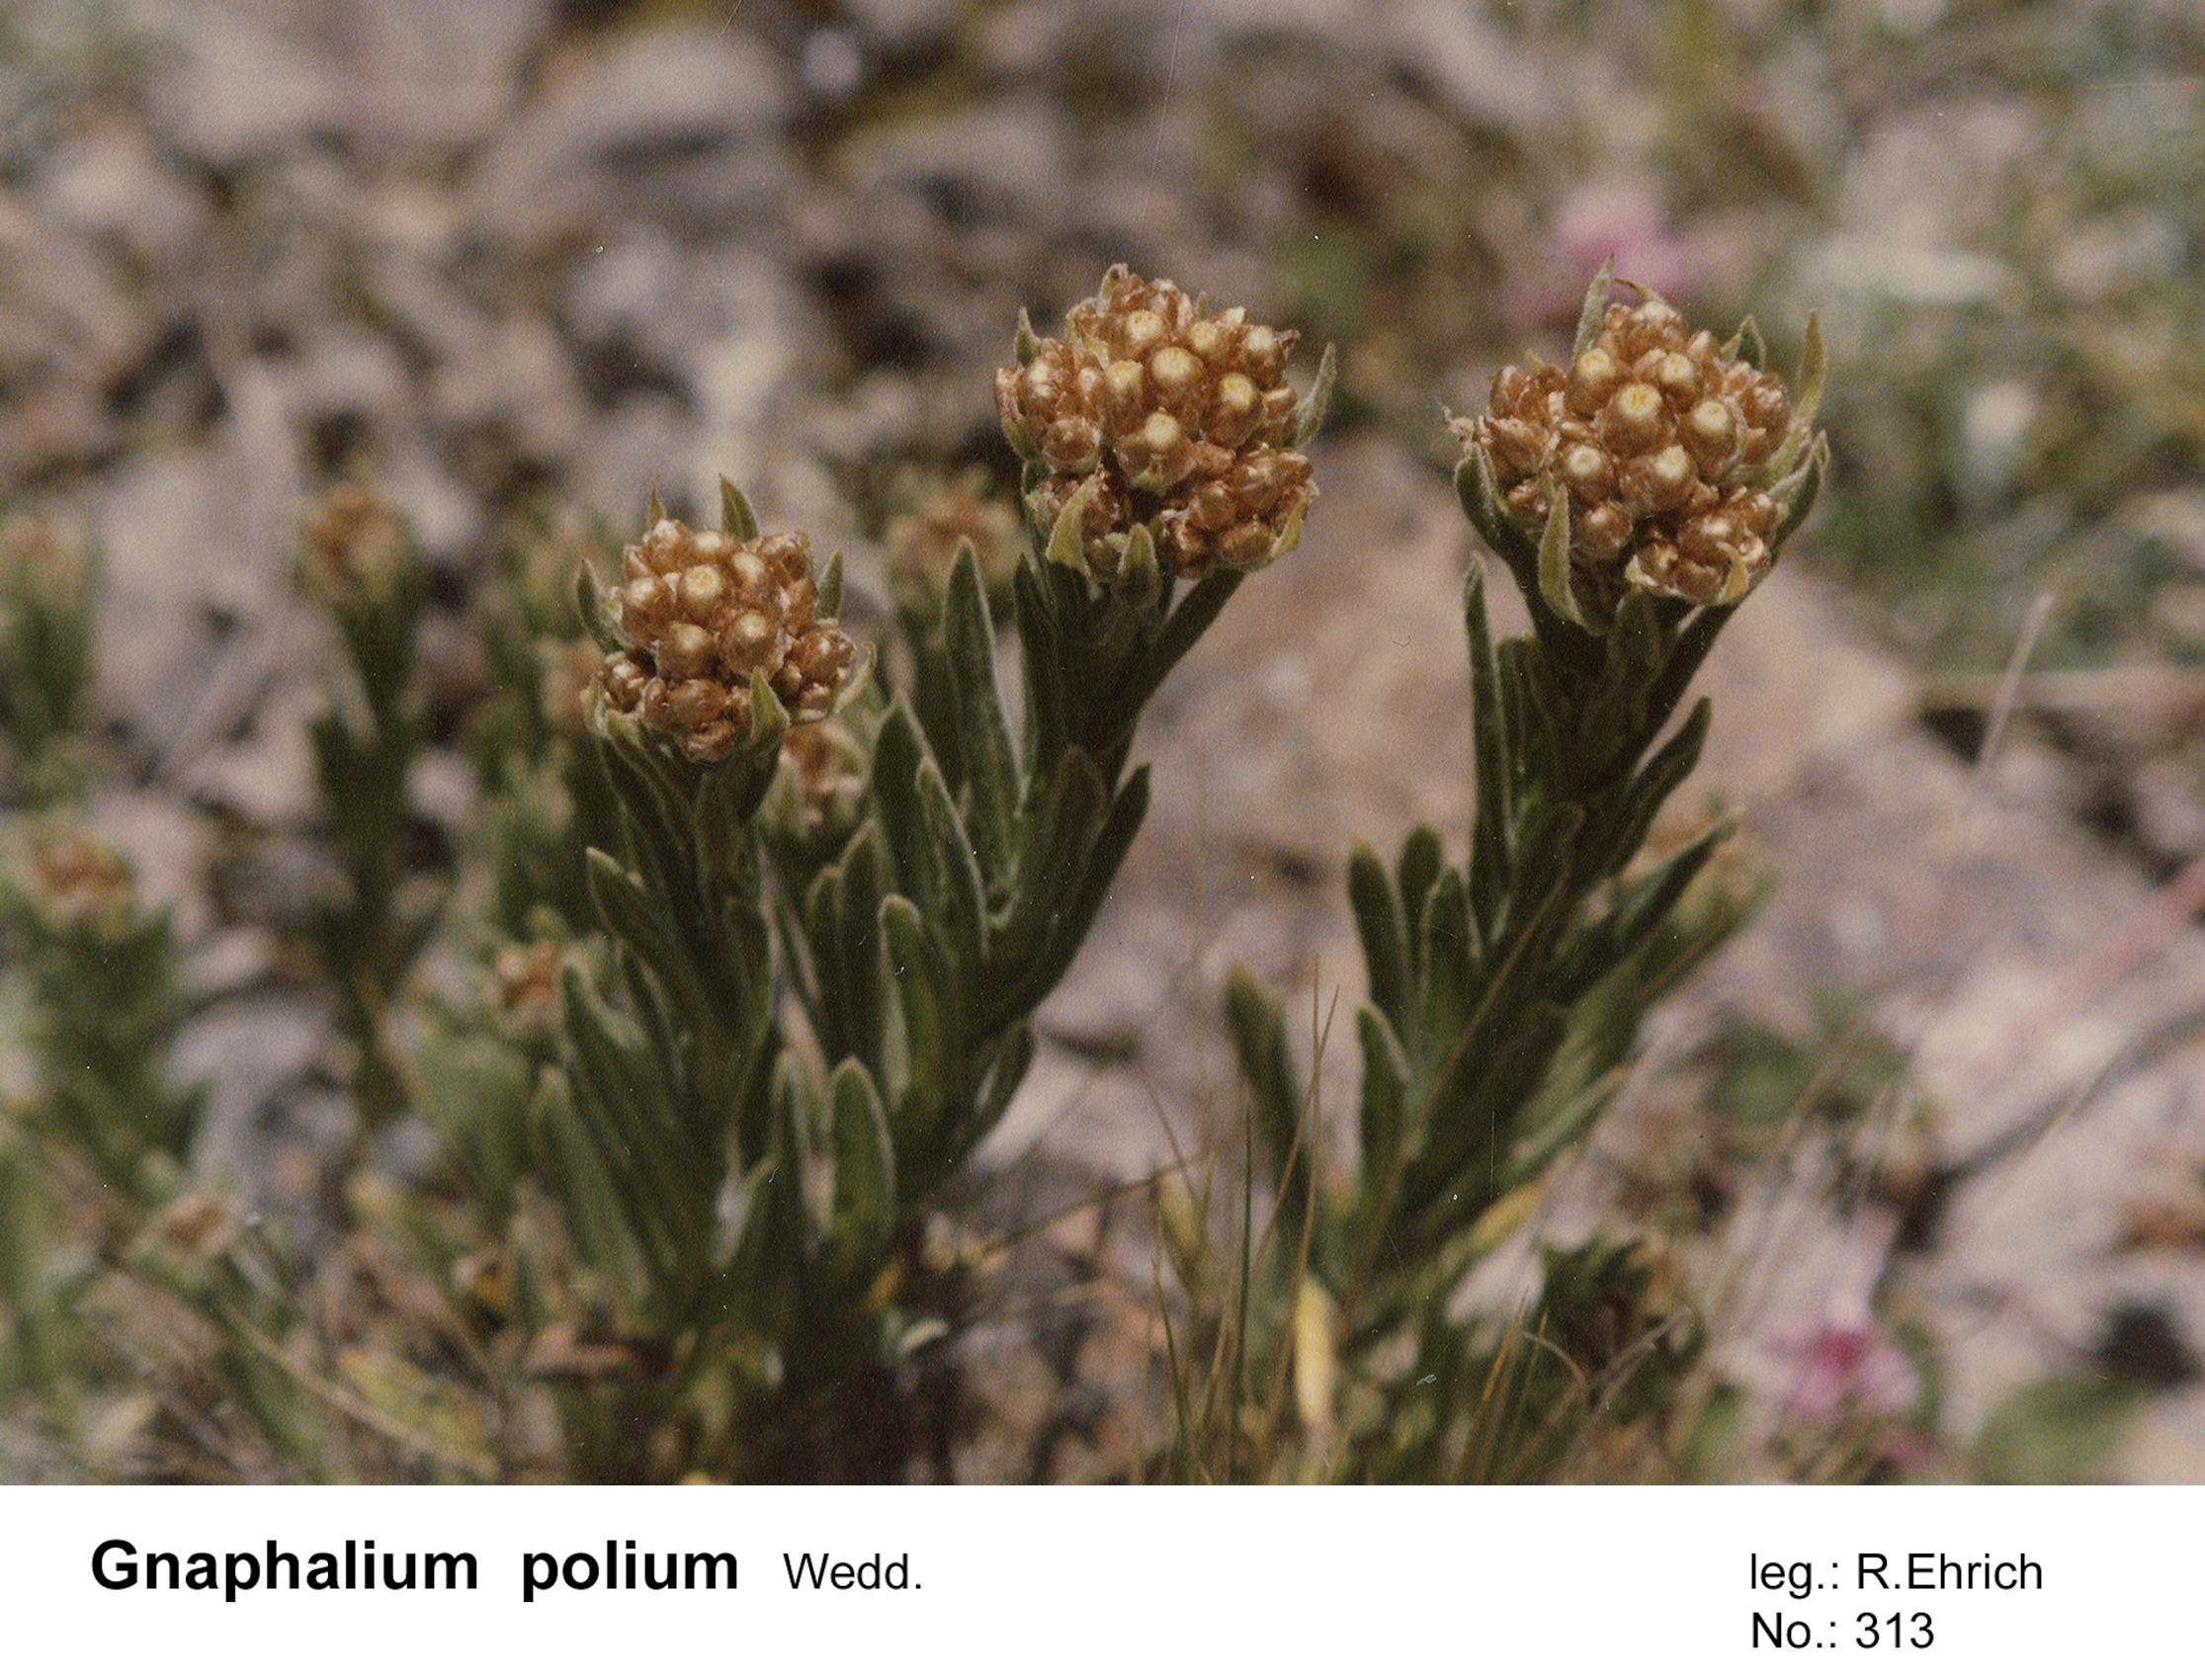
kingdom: Plantae
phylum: Tracheophyta
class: Magnoliopsida
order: Asterales
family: Asteraceae
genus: Pseudognaphalium
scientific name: Pseudognaphalium viravira
